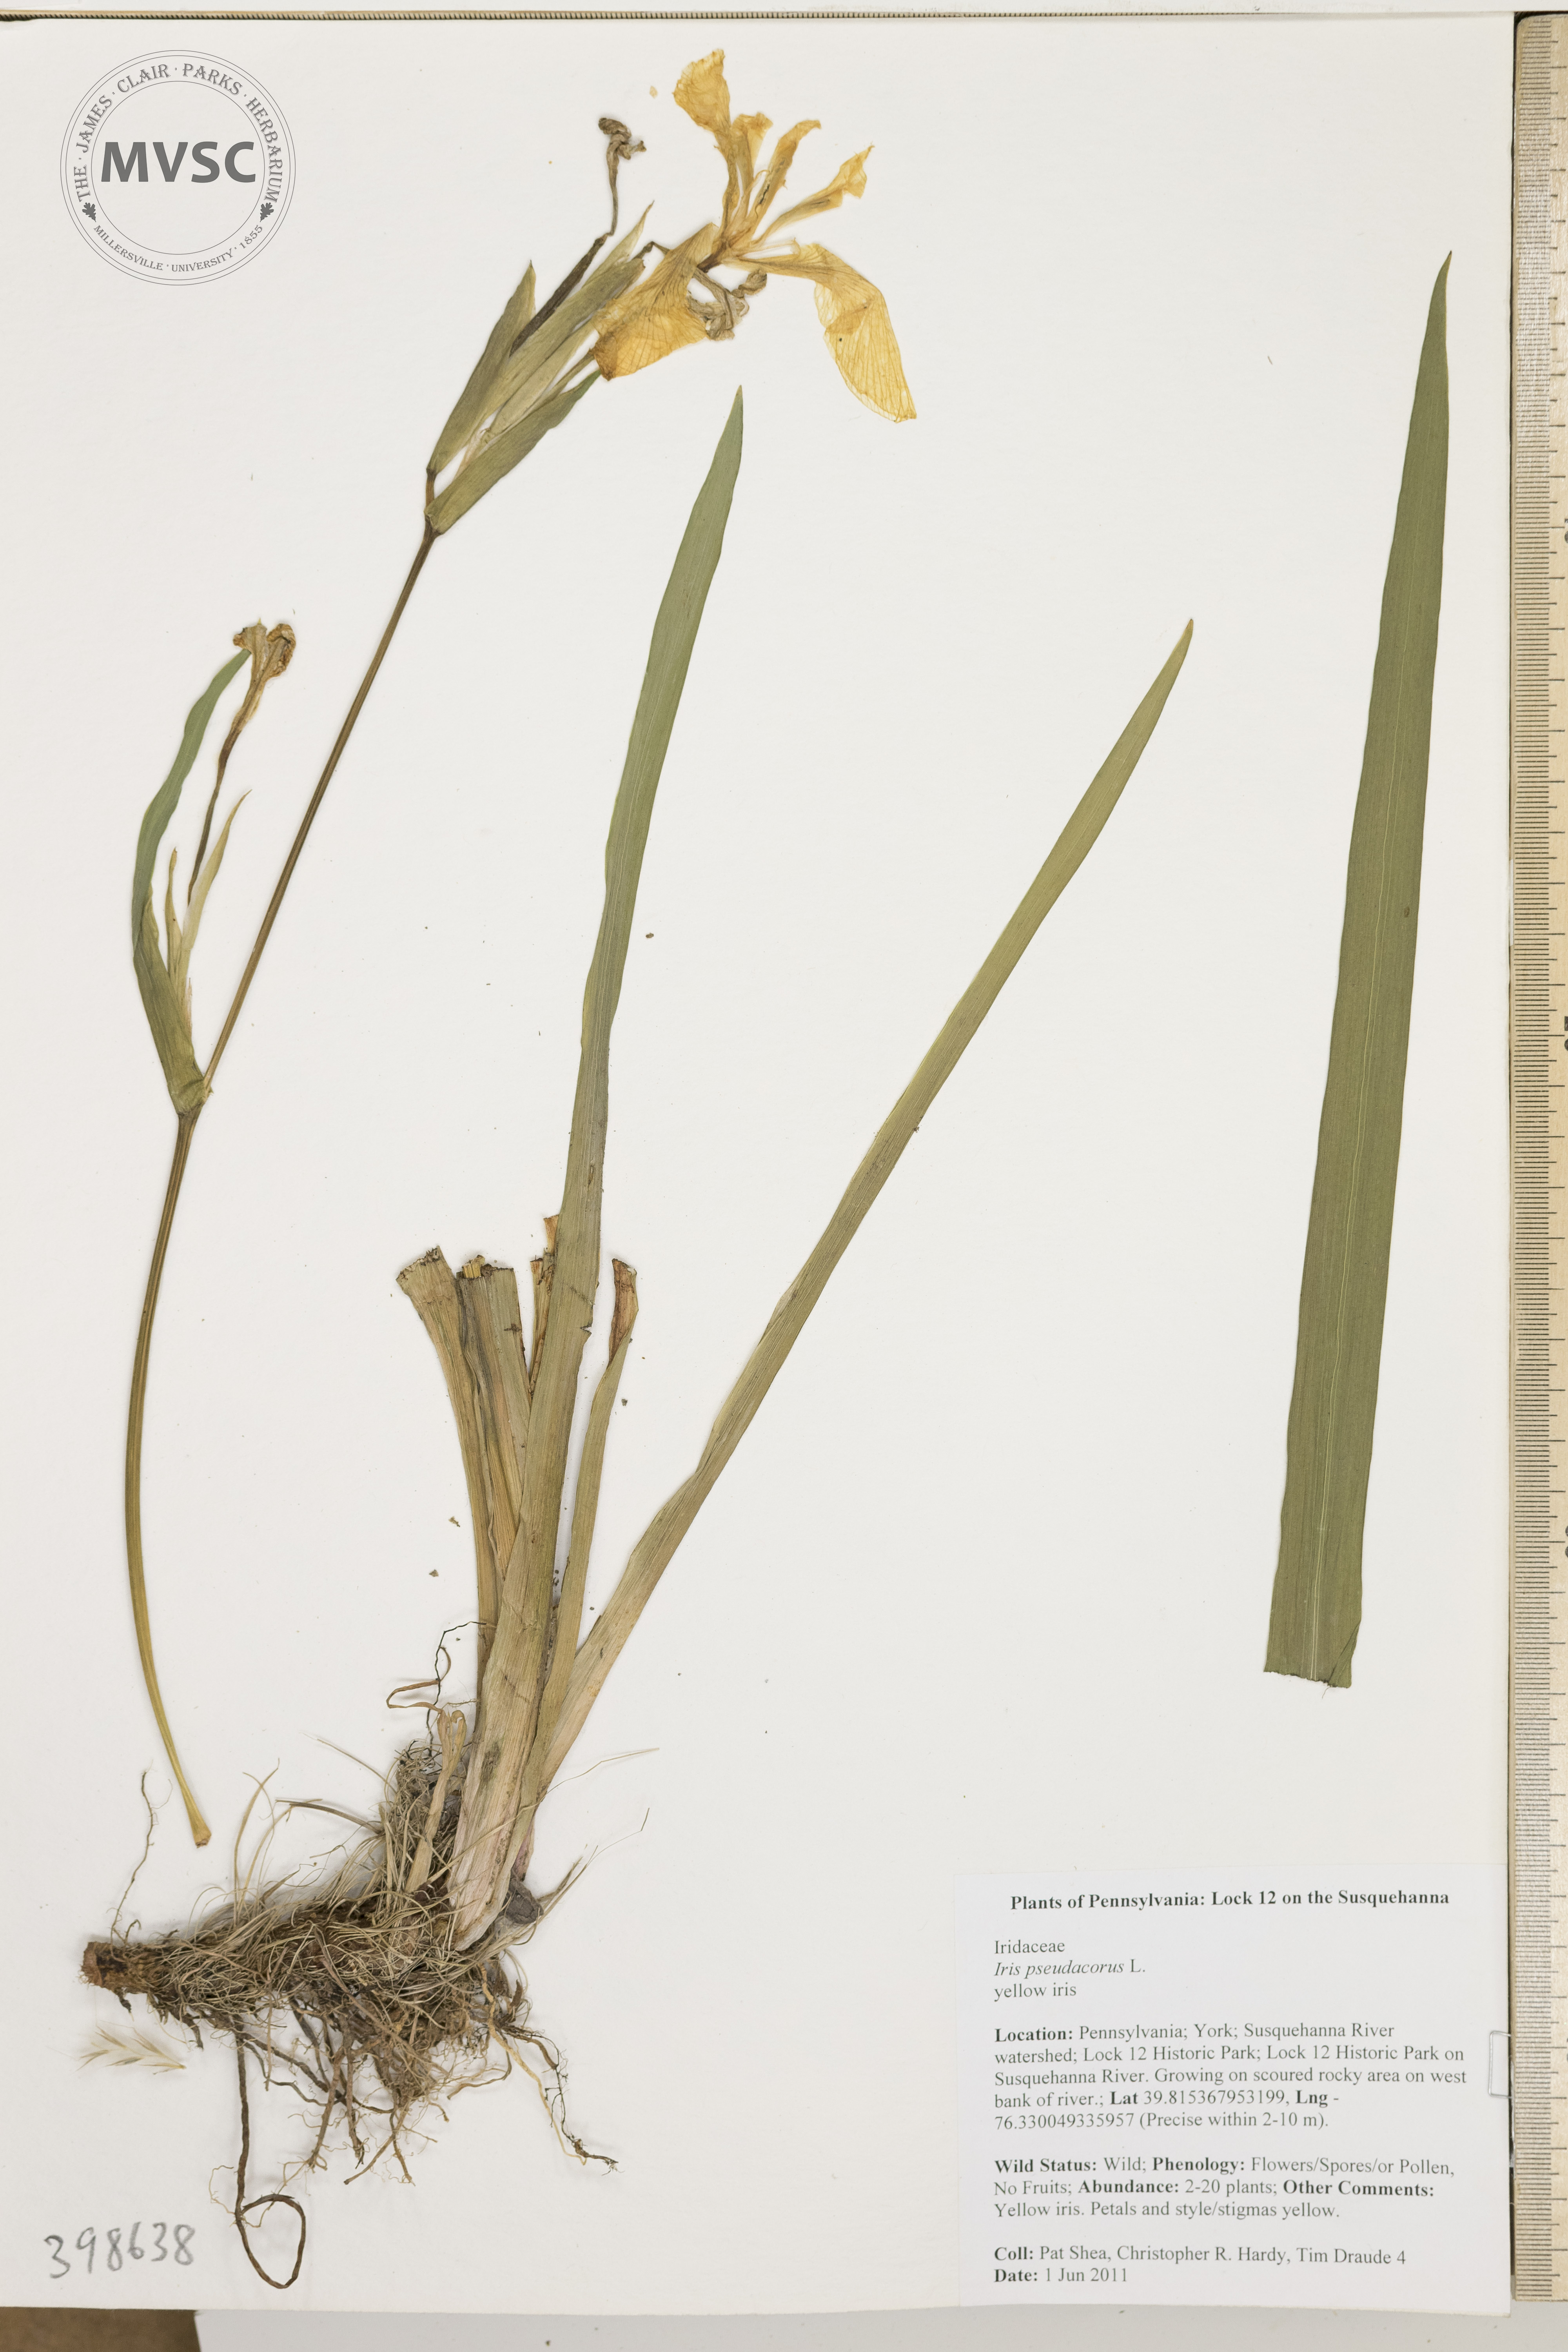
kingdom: Plantae
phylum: Tracheophyta
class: Liliopsida
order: Asparagales
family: Iridaceae
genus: Iris
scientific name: Iris pseudacorus
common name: Water flag
